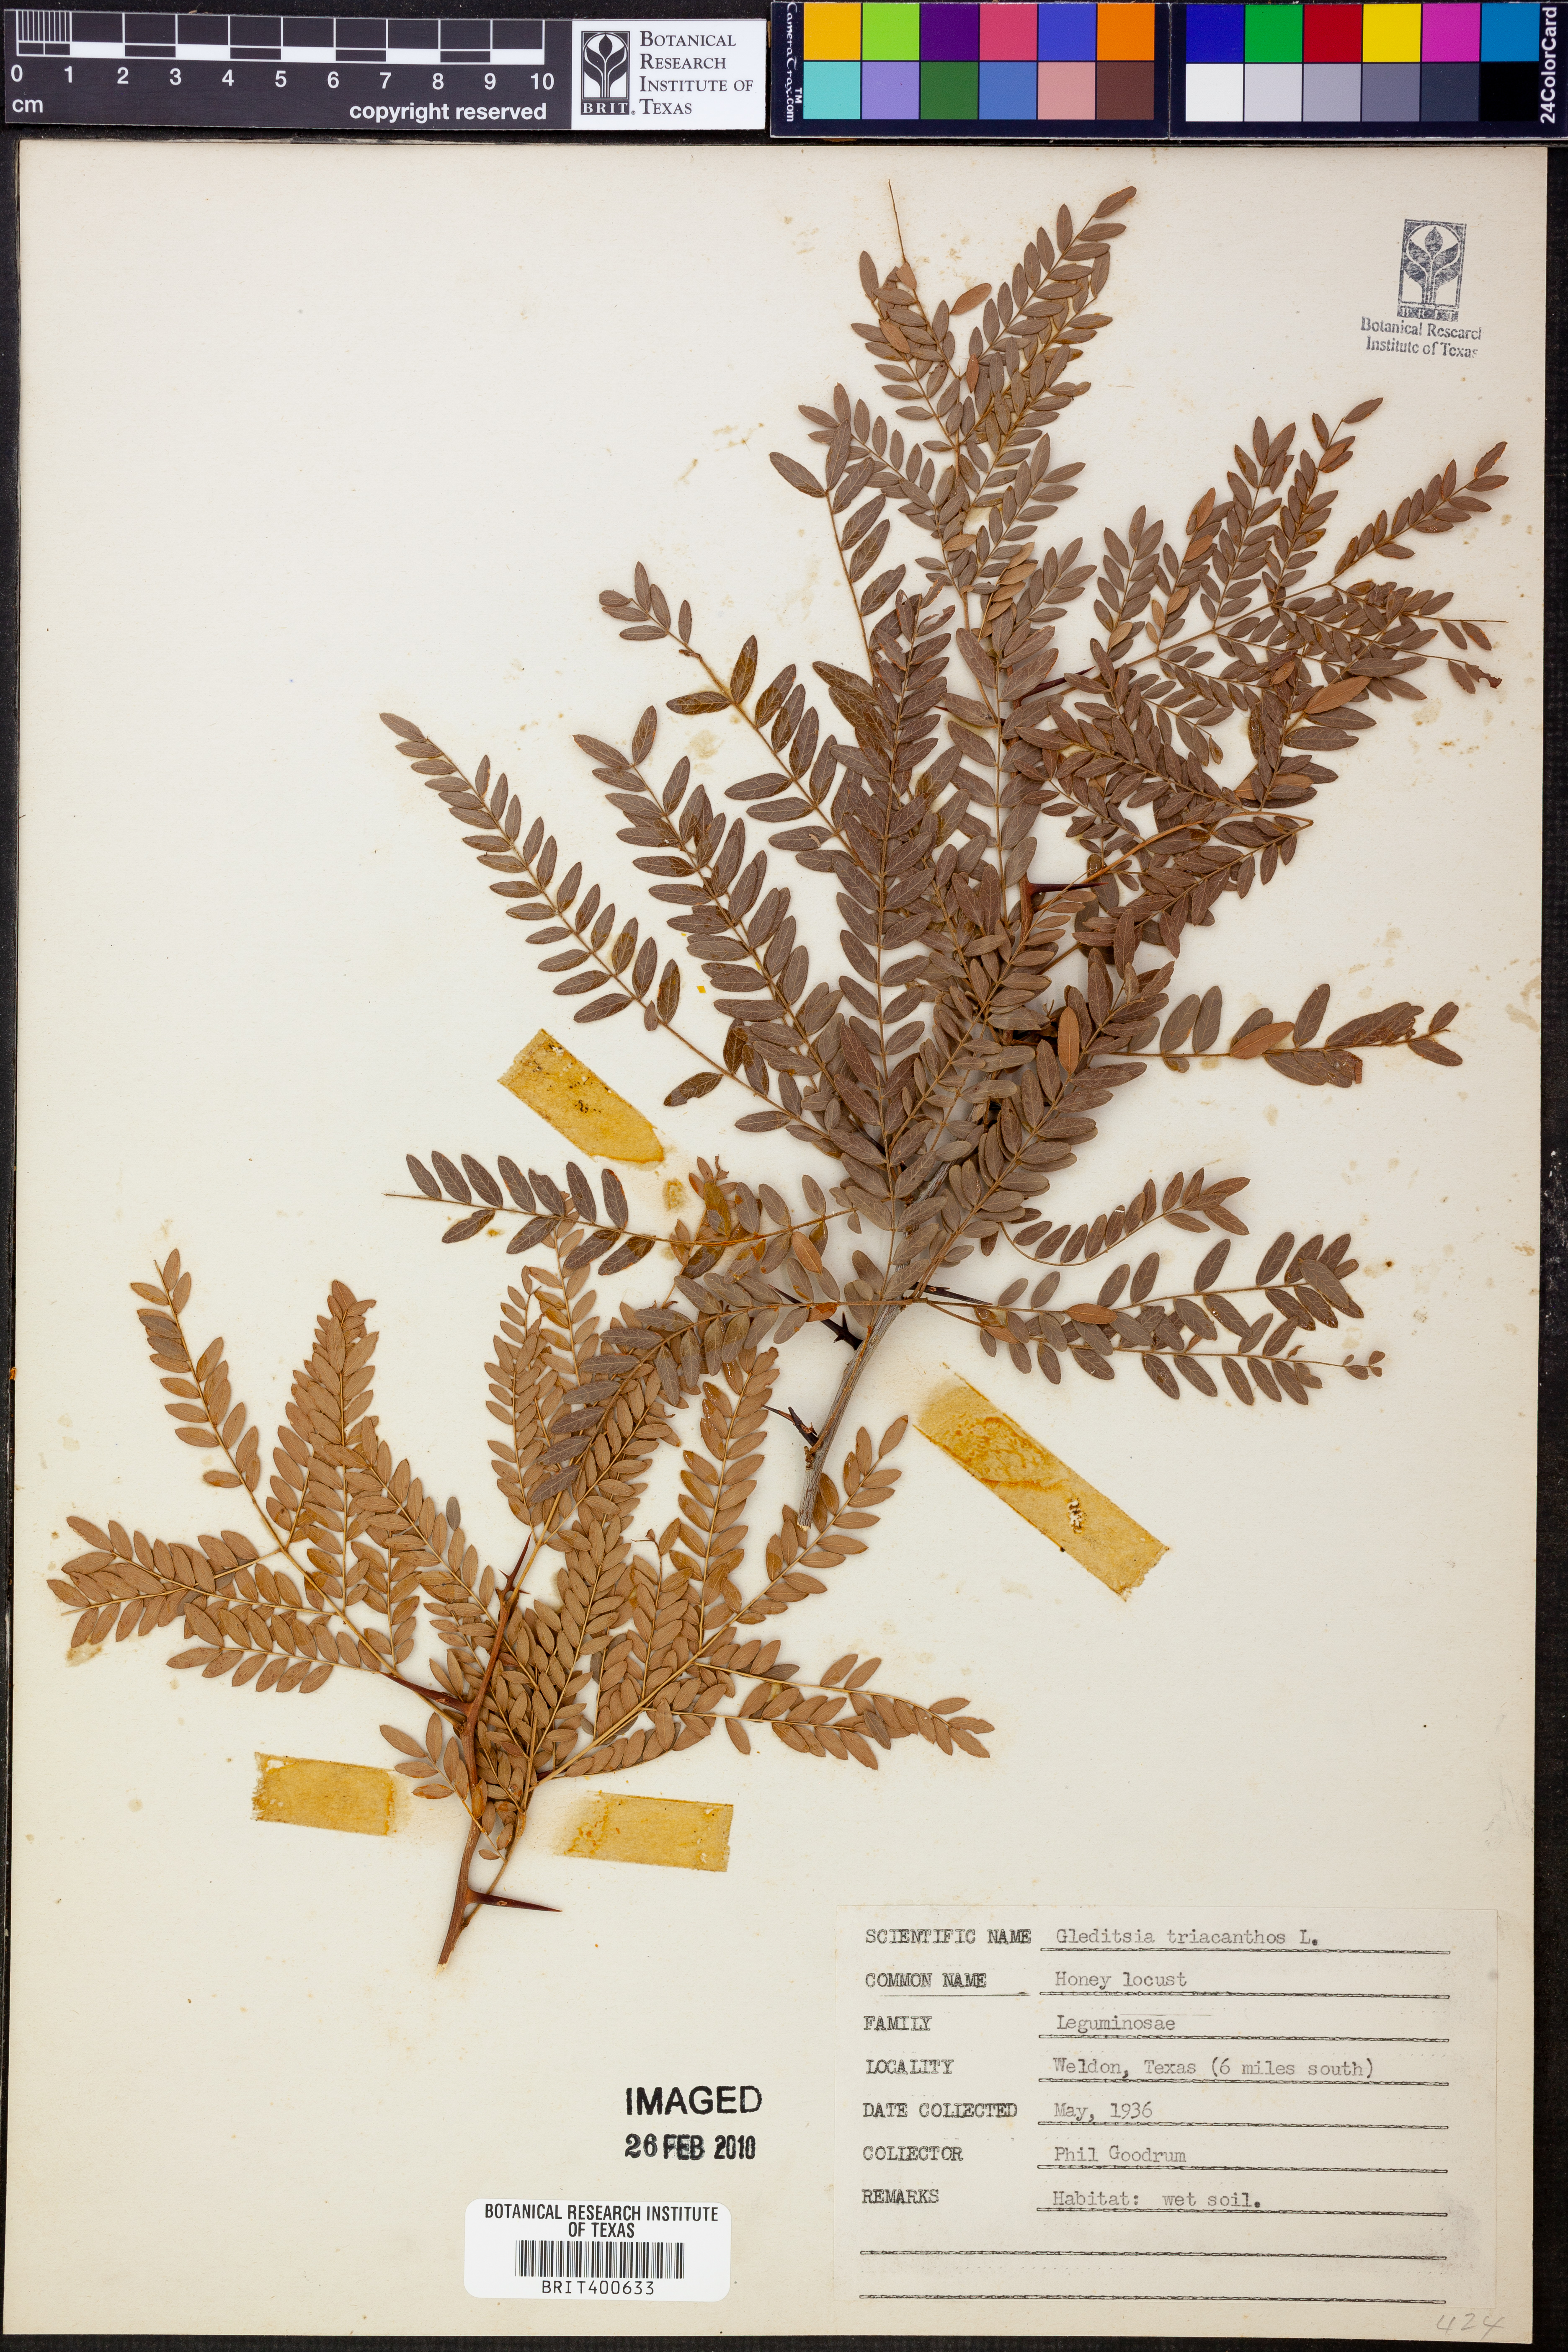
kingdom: Plantae
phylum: Tracheophyta
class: Magnoliopsida
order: Fabales
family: Fabaceae
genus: Gleditsia
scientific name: Gleditsia triacanthos
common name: Common honeylocust
